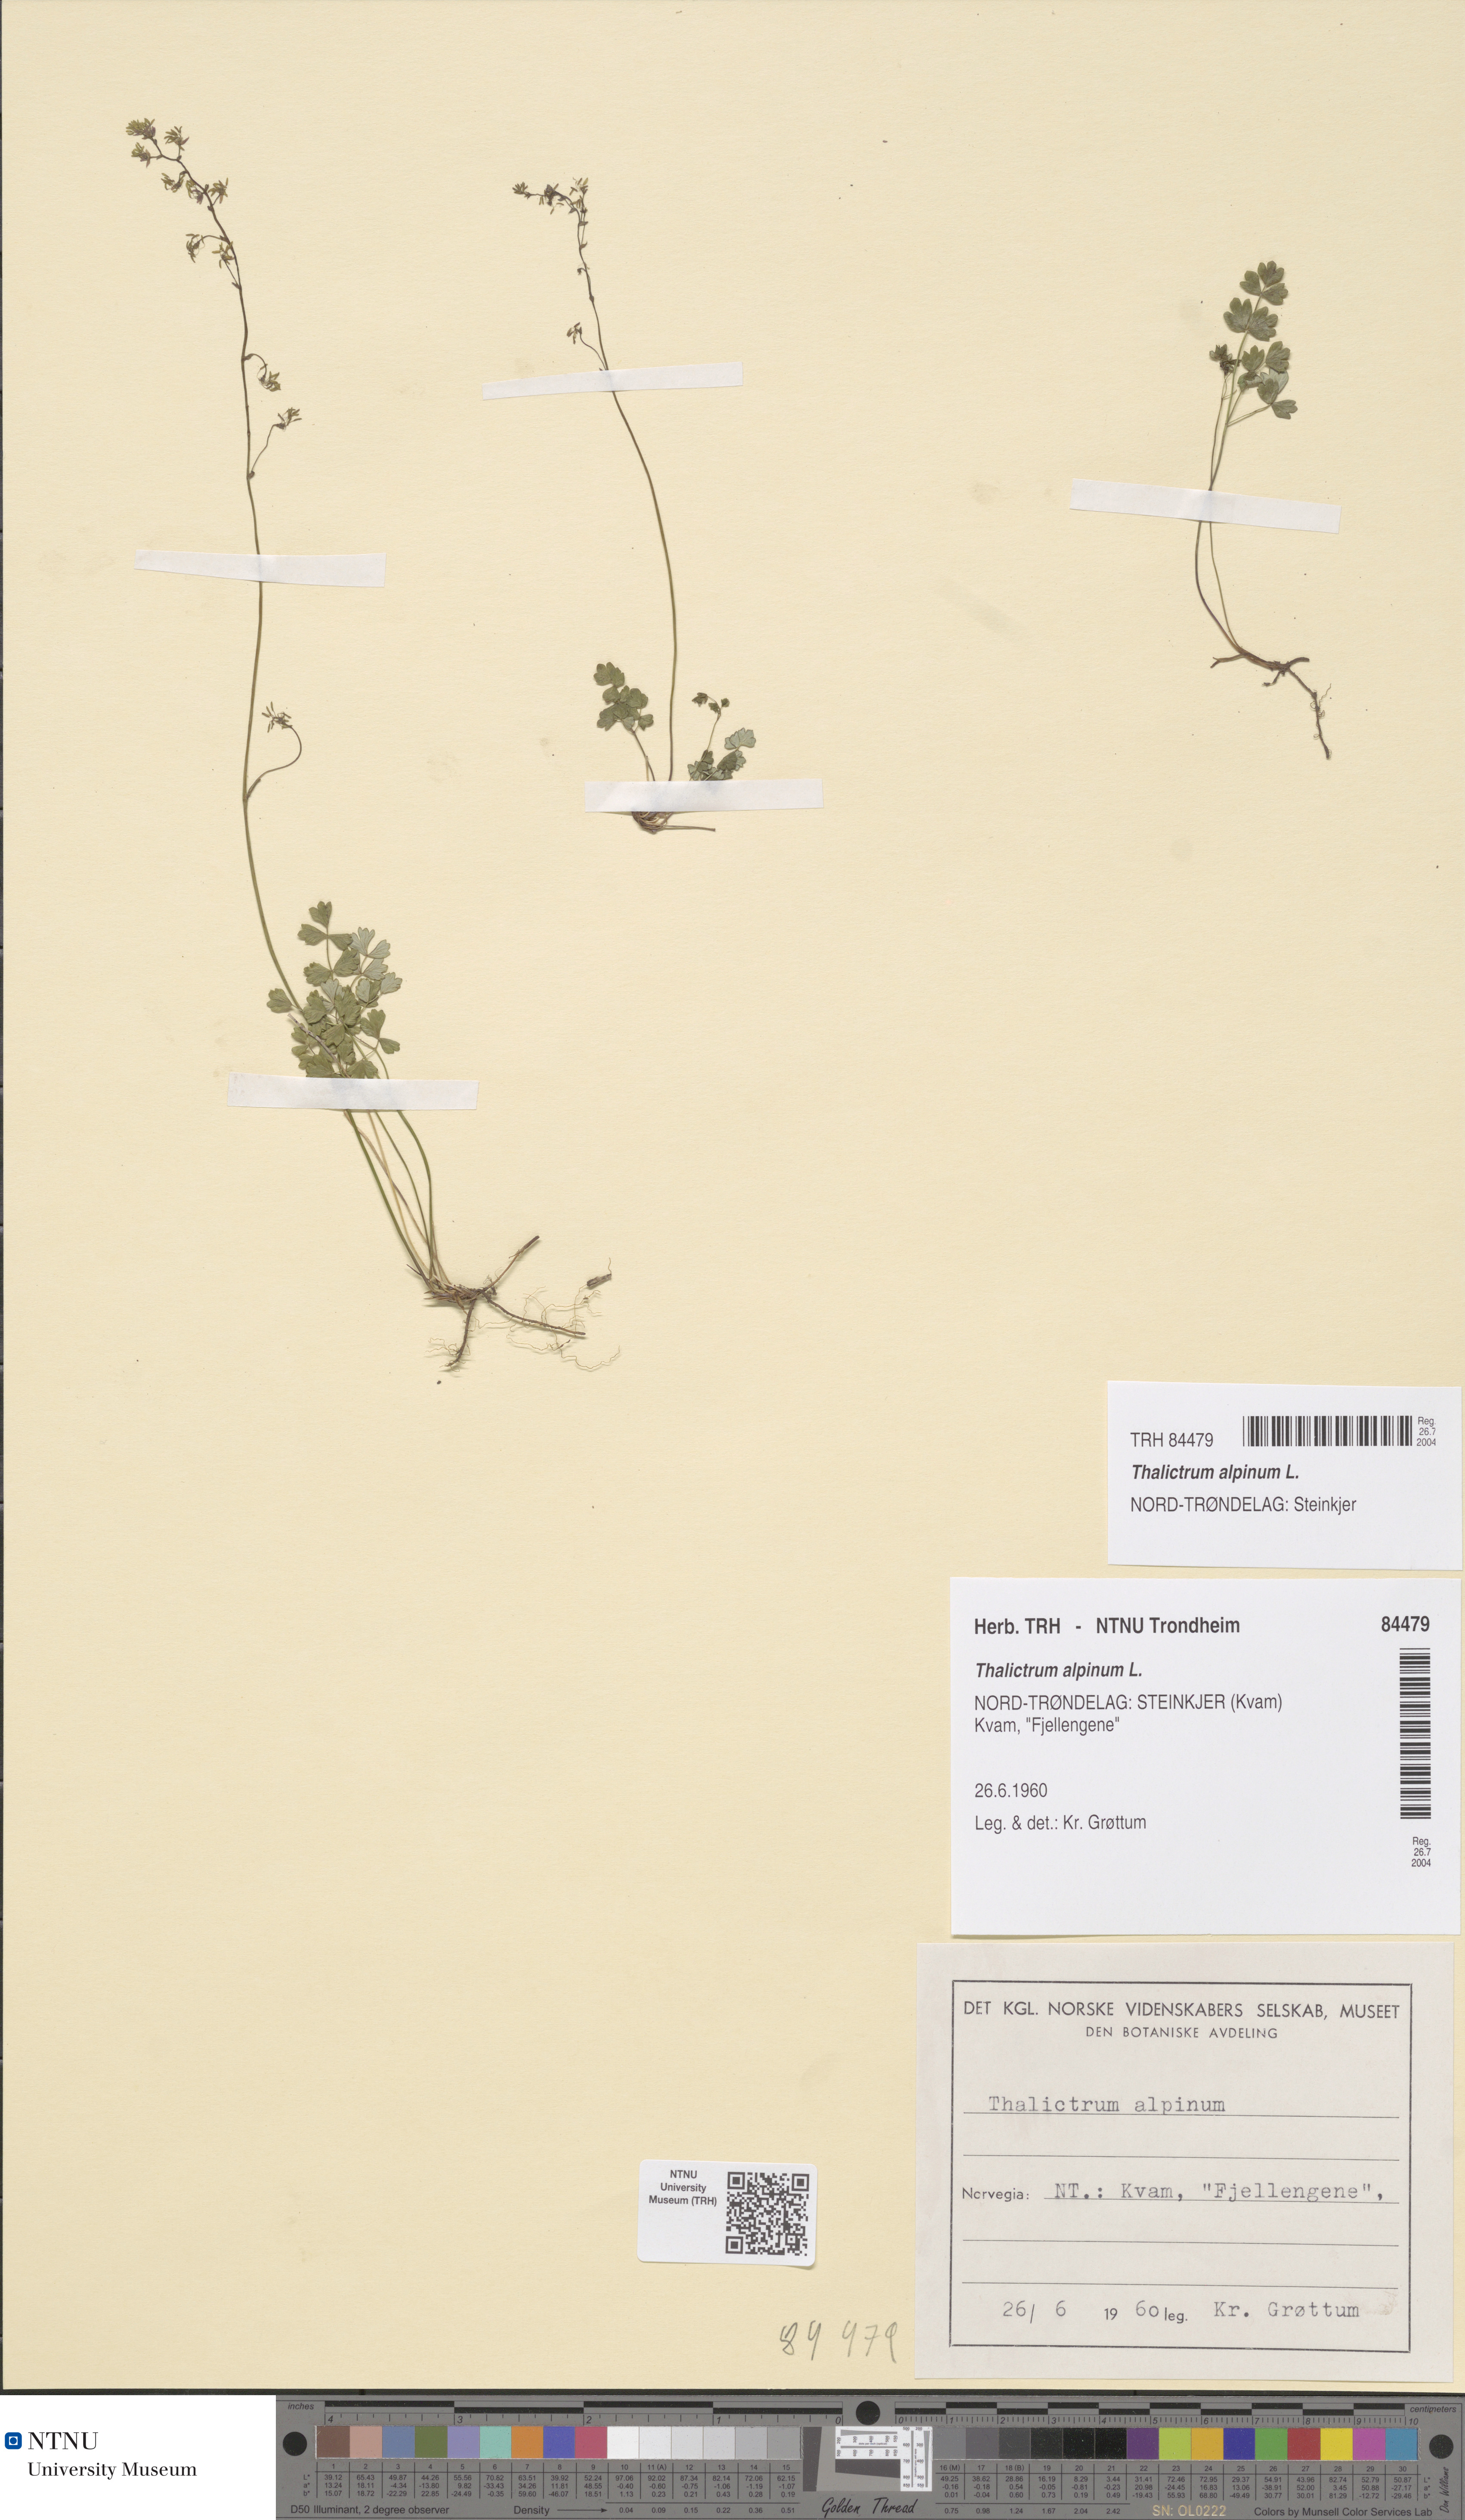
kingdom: Plantae
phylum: Tracheophyta
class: Magnoliopsida
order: Ranunculales
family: Ranunculaceae
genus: Thalictrum
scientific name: Thalictrum alpinum
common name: Alpine meadow-rue
